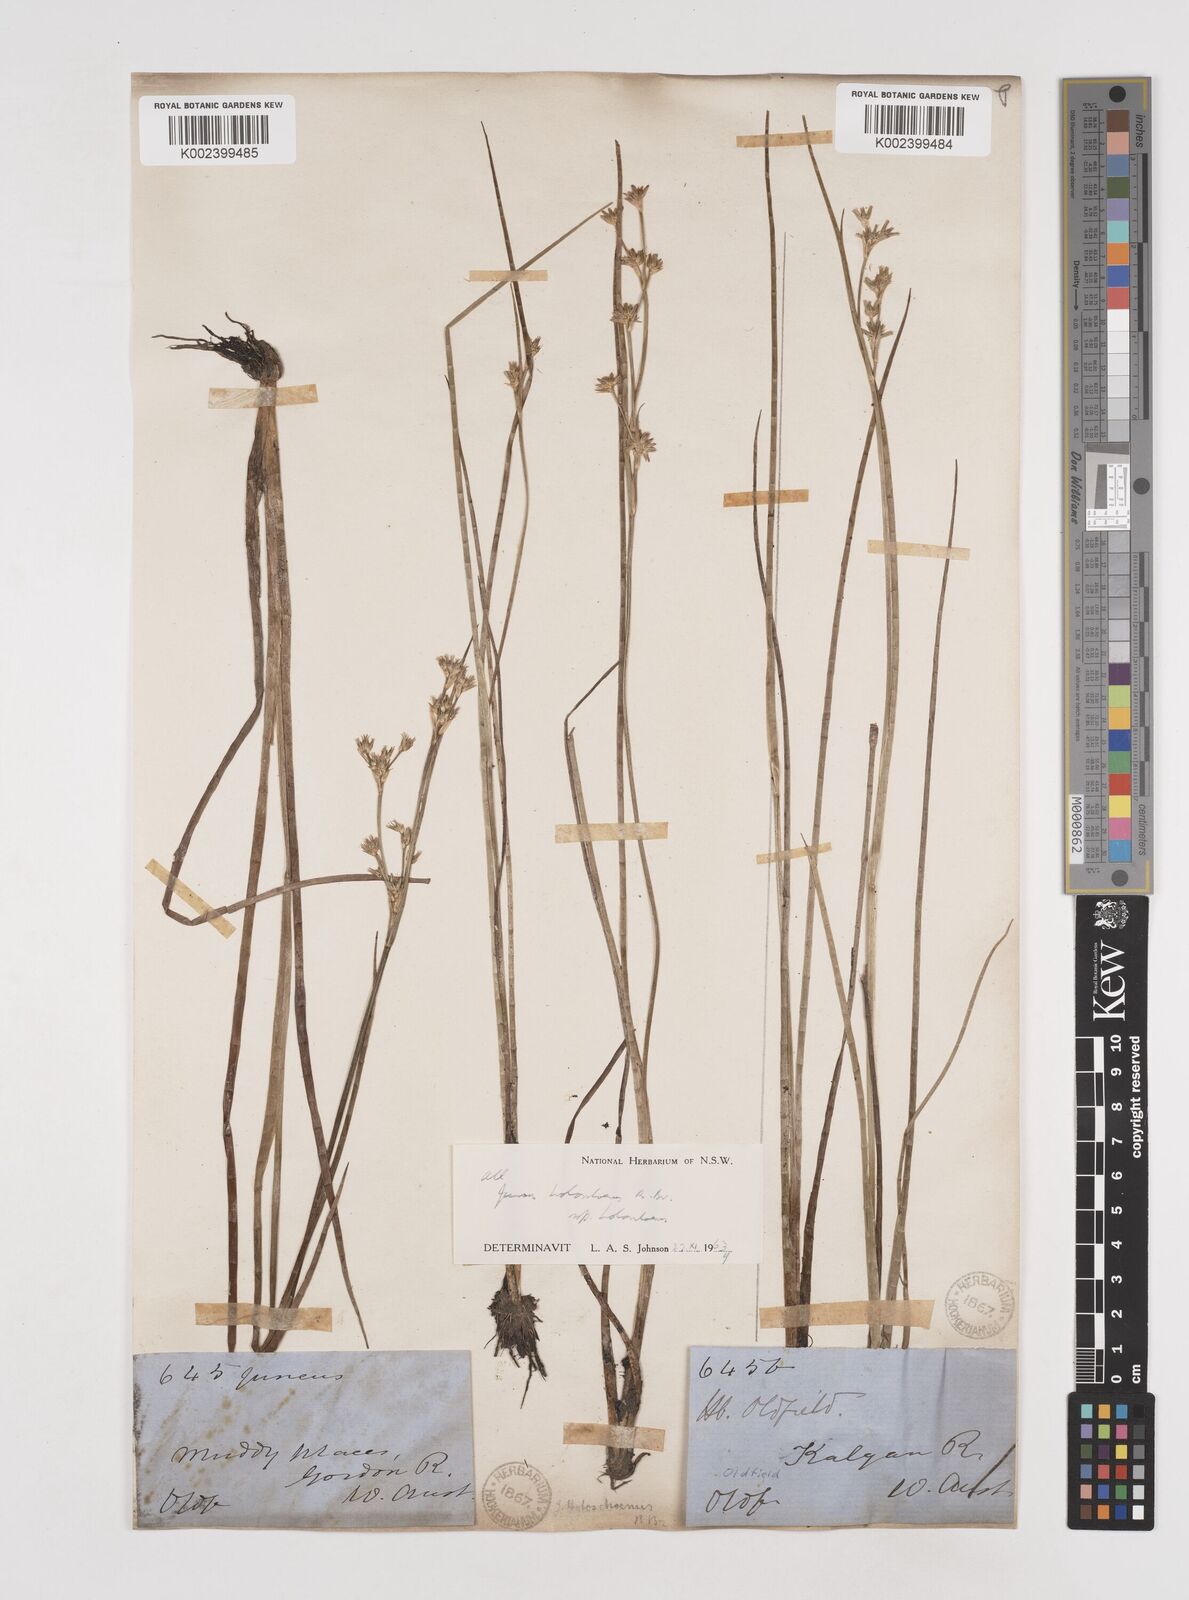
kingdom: Plantae
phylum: Tracheophyta
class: Liliopsida
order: Poales
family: Juncaceae
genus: Juncus
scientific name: Juncus holoschoenus
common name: Joint-leaf rush
